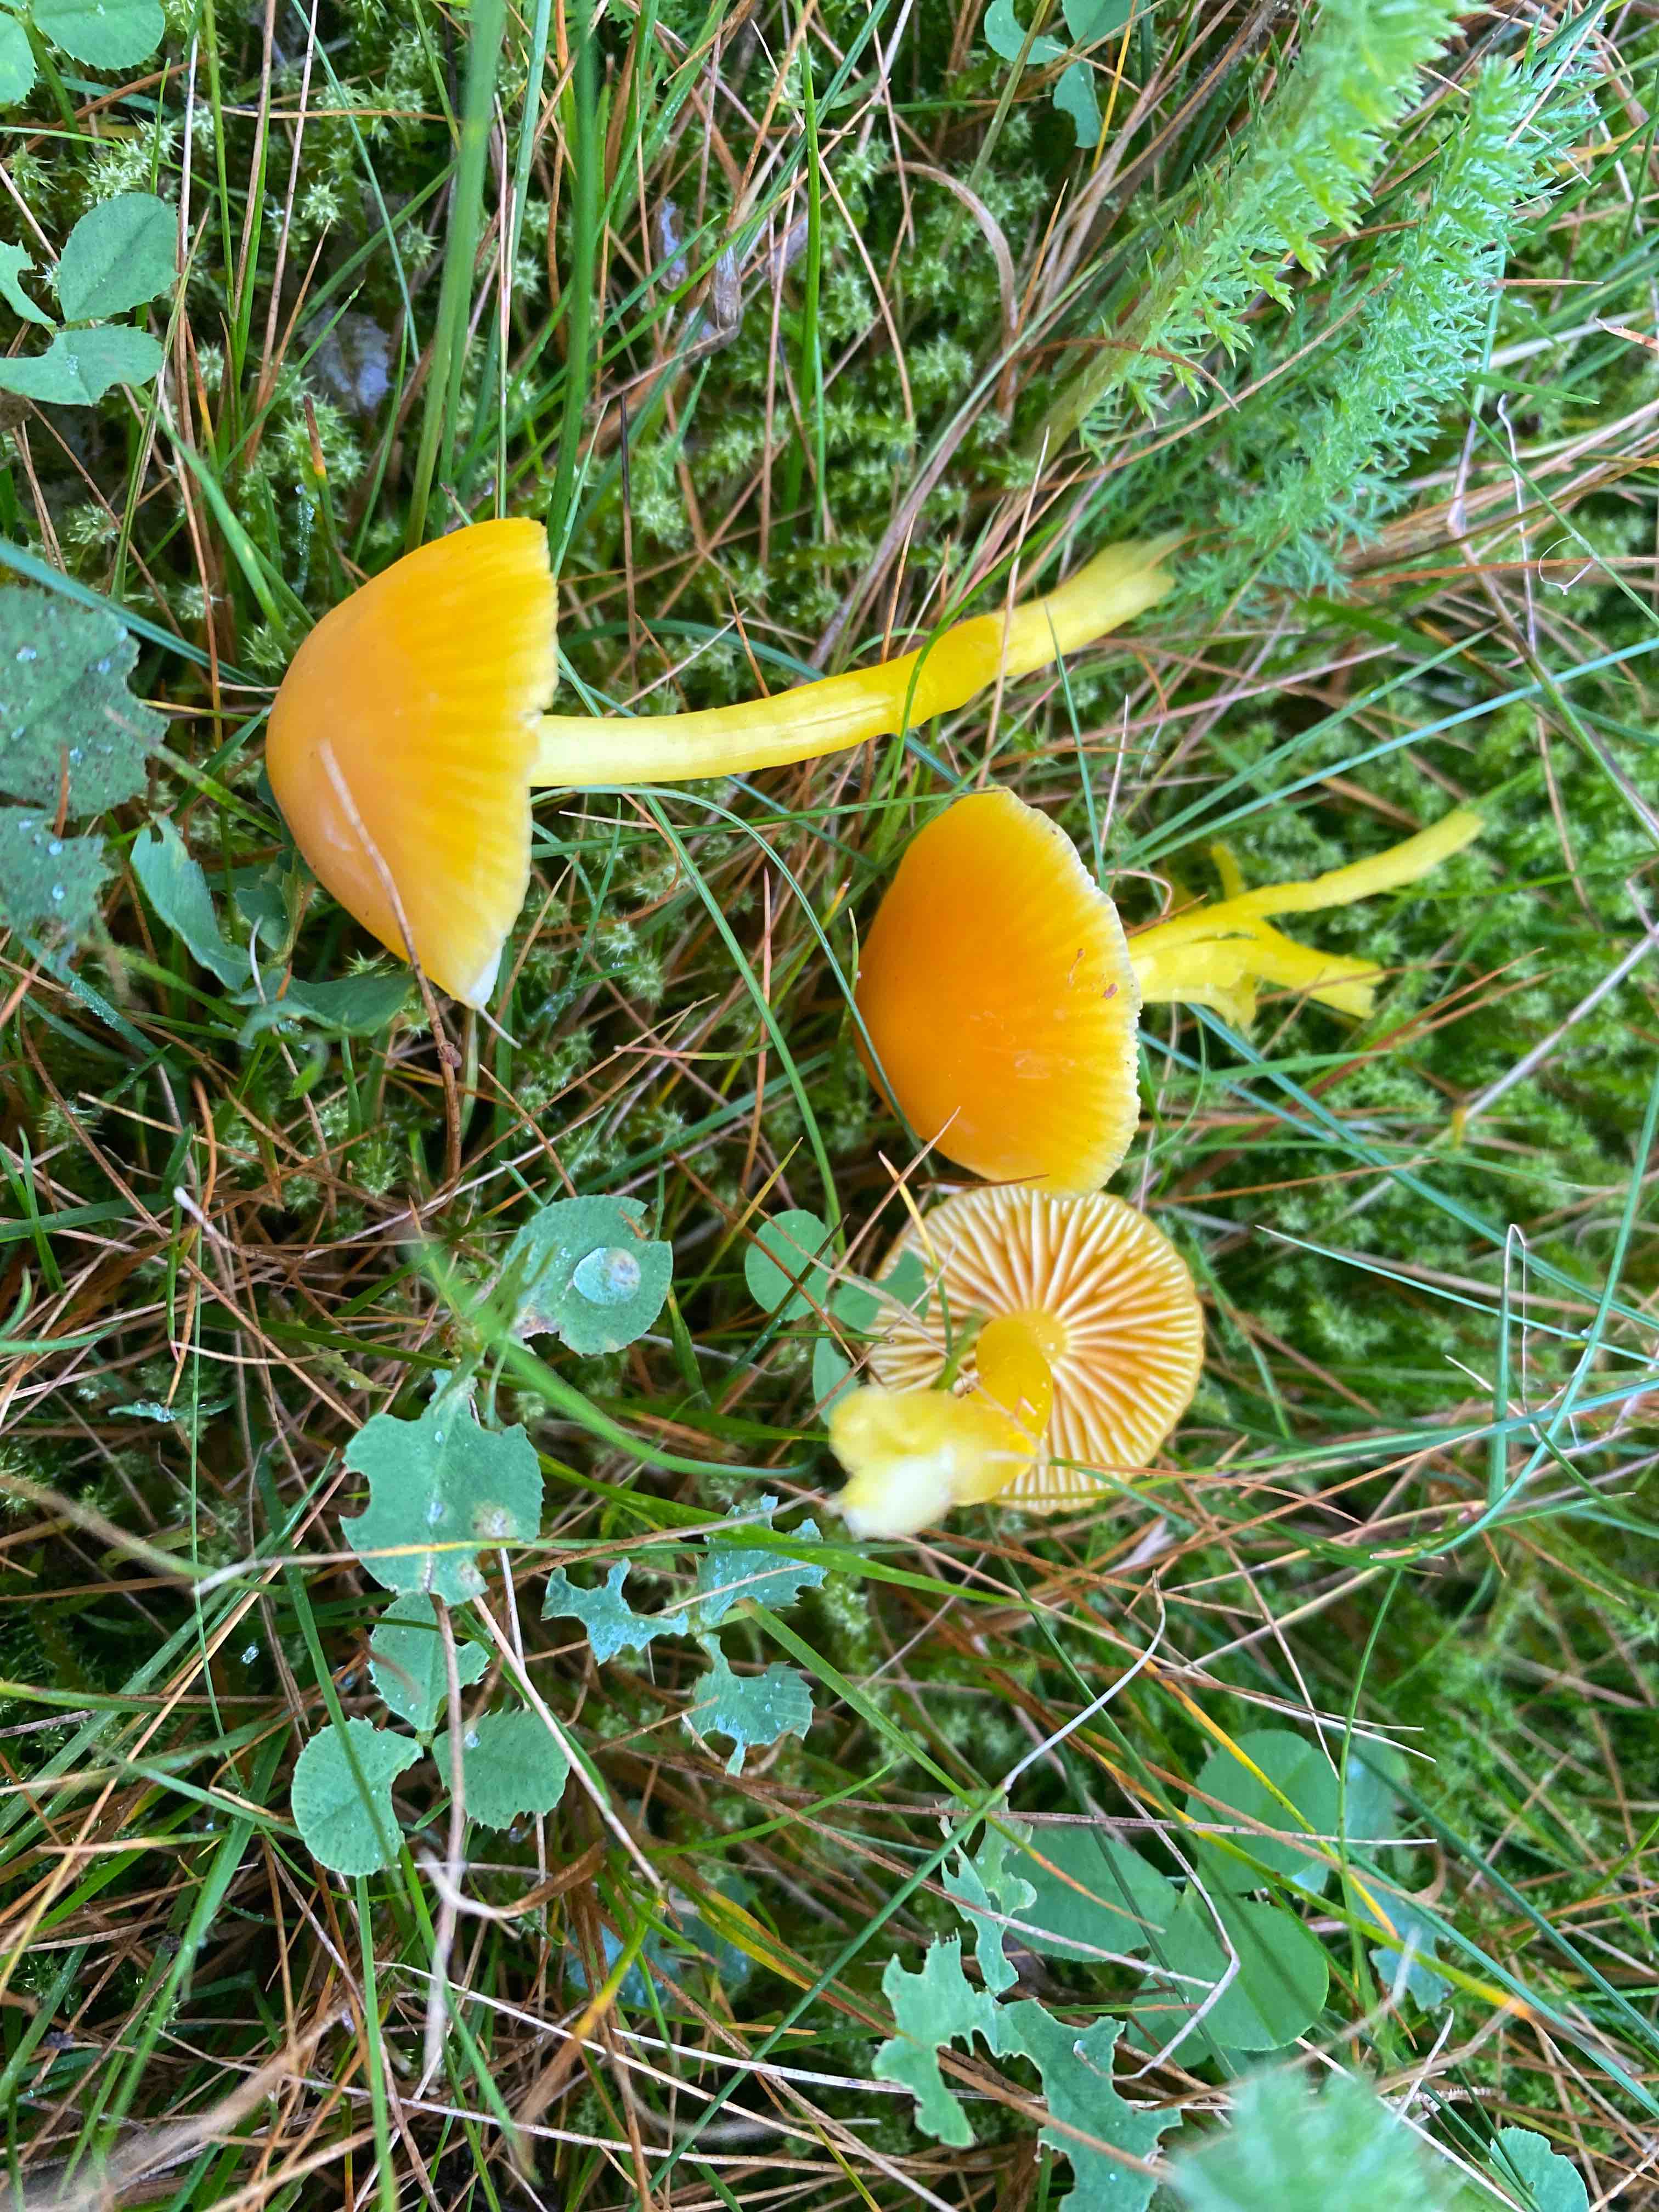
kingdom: Fungi
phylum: Basidiomycota
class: Agaricomycetes
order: Agaricales
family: Hygrophoraceae
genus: Hygrocybe
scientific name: Hygrocybe ceracea
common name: voksgul vokshat
